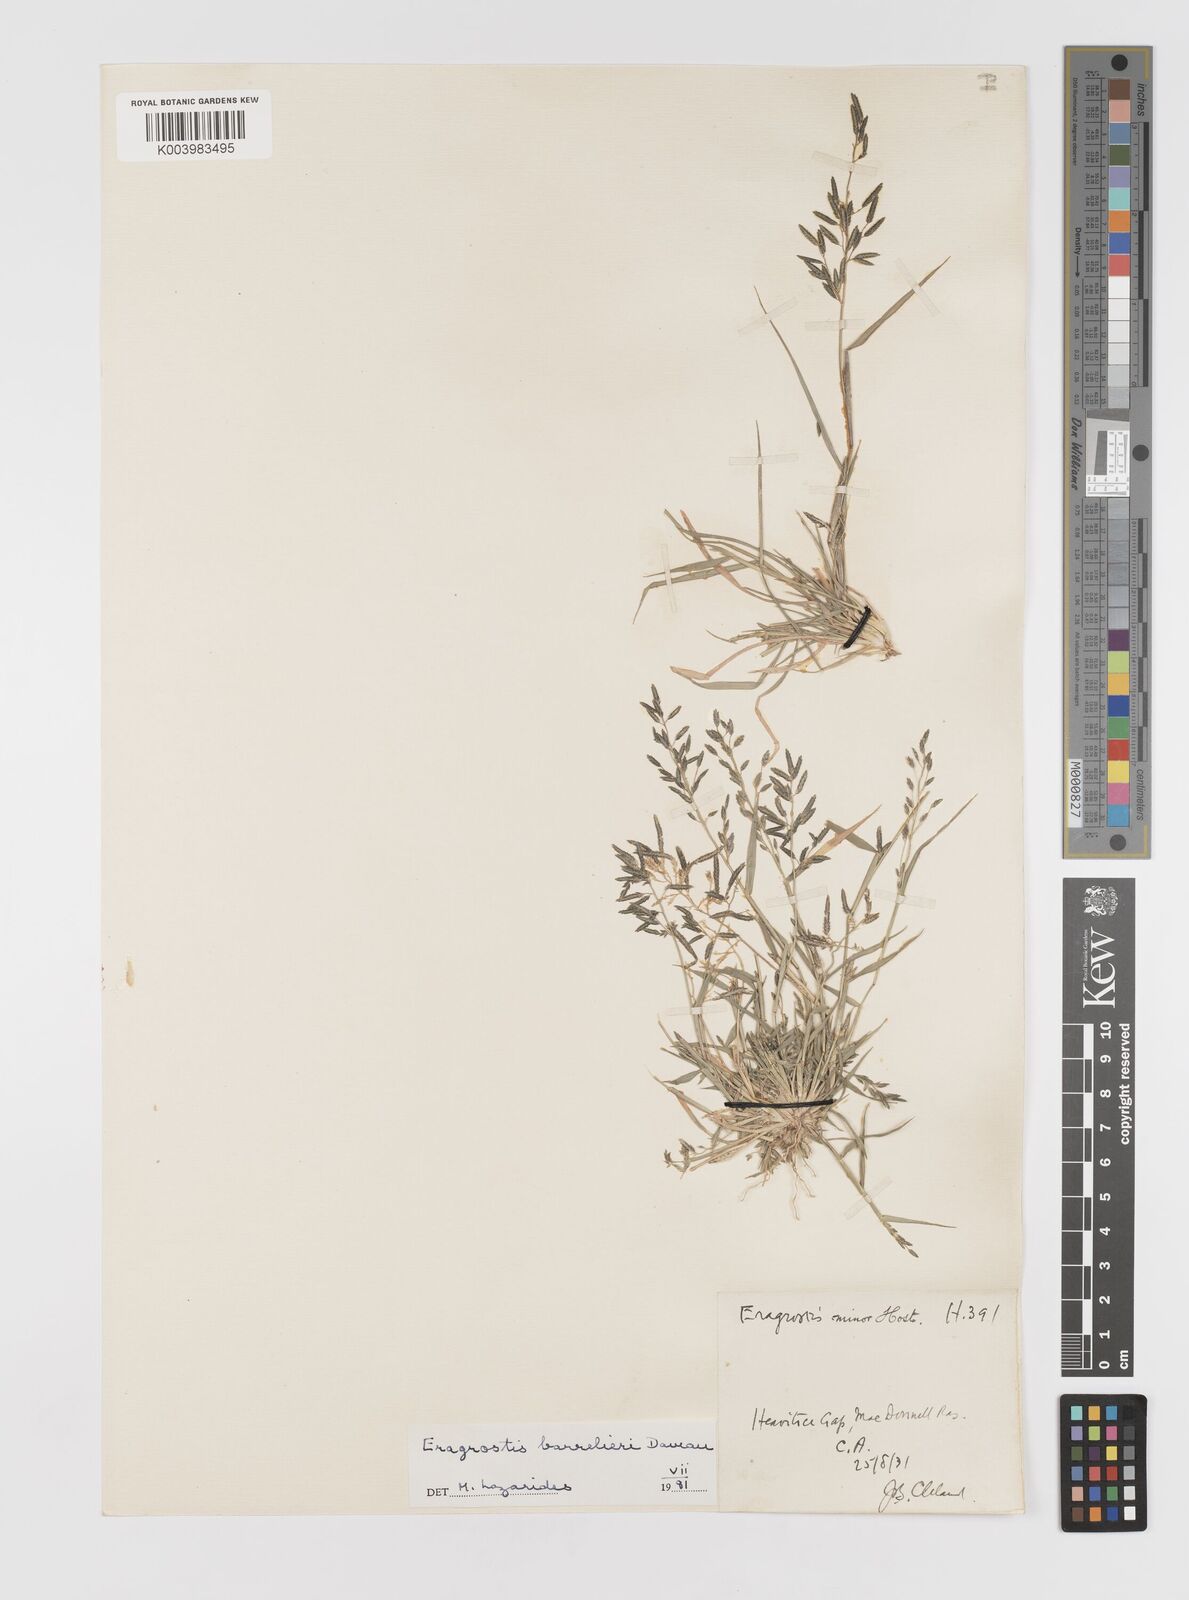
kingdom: Plantae
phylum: Tracheophyta
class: Liliopsida
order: Poales
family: Poaceae
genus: Eragrostis
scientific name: Eragrostis barrelieri
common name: Mediterranean lovegrass
